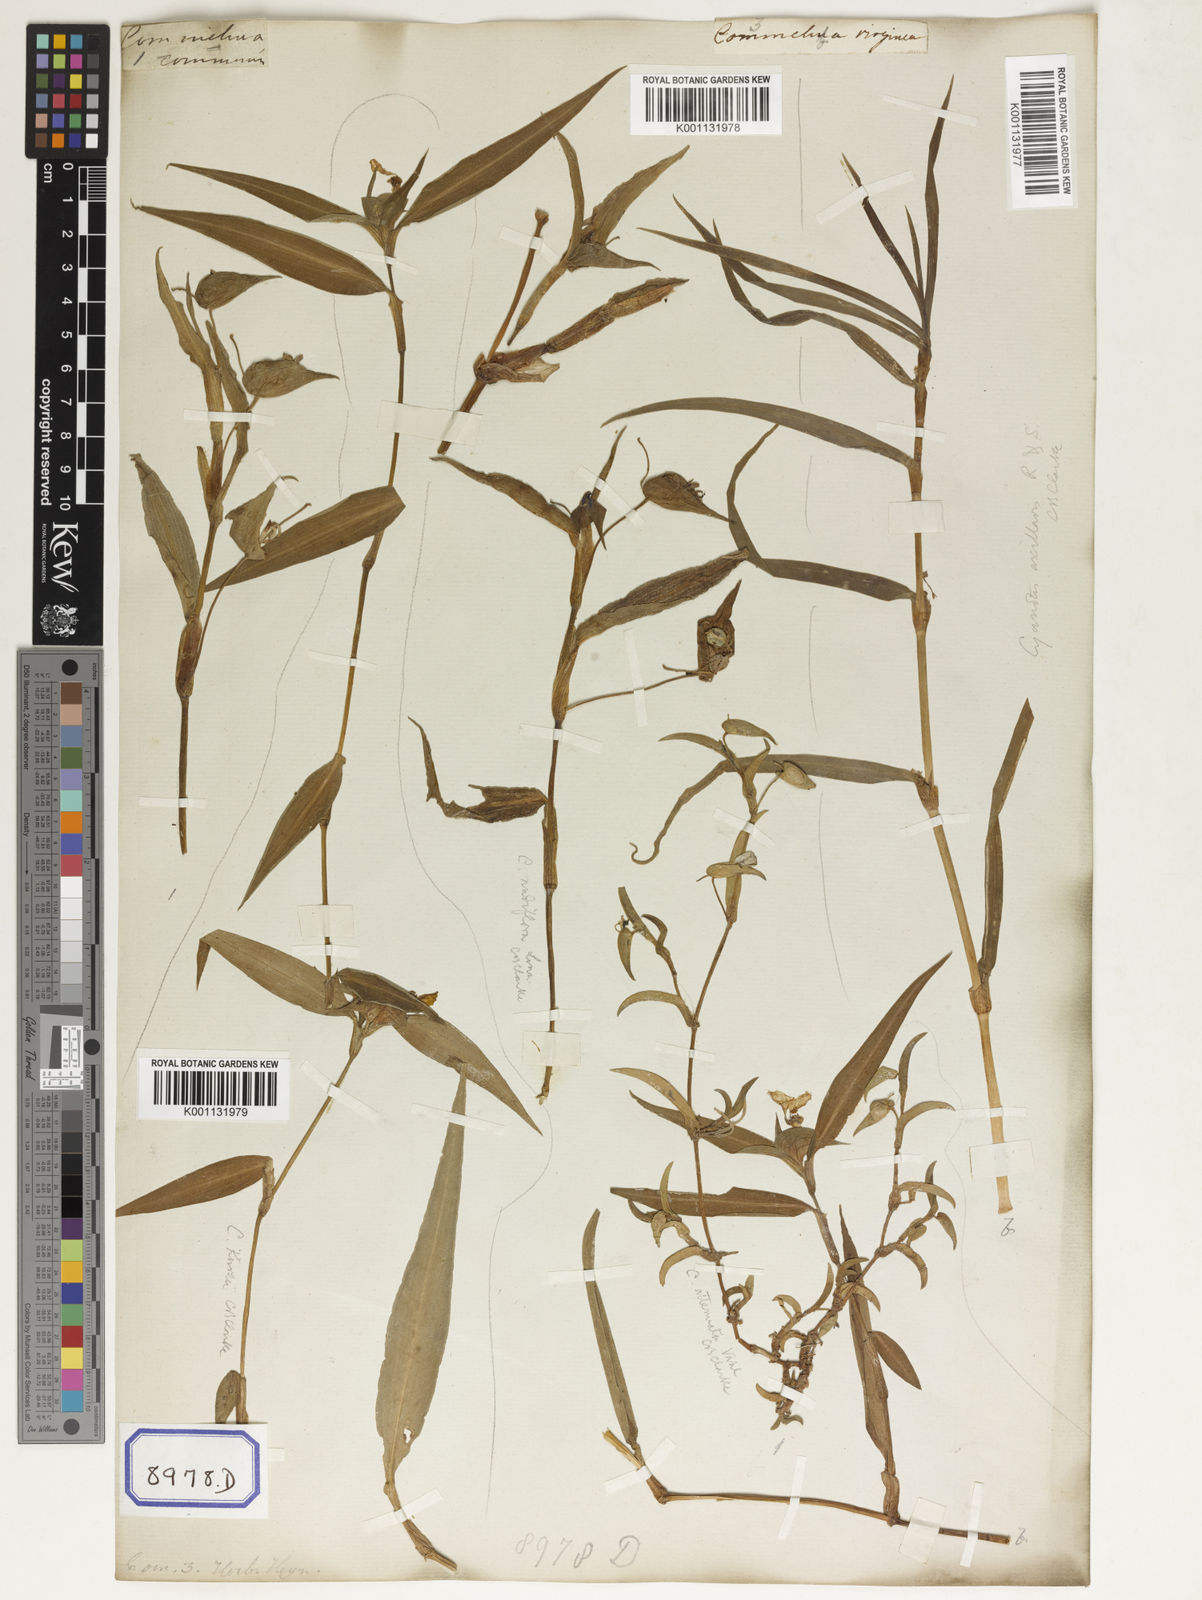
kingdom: Plantae
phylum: Tracheophyta
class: Liliopsida
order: Commelinales
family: Commelinaceae
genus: Commelina
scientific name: Commelina communis
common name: Asiatic dayflower
